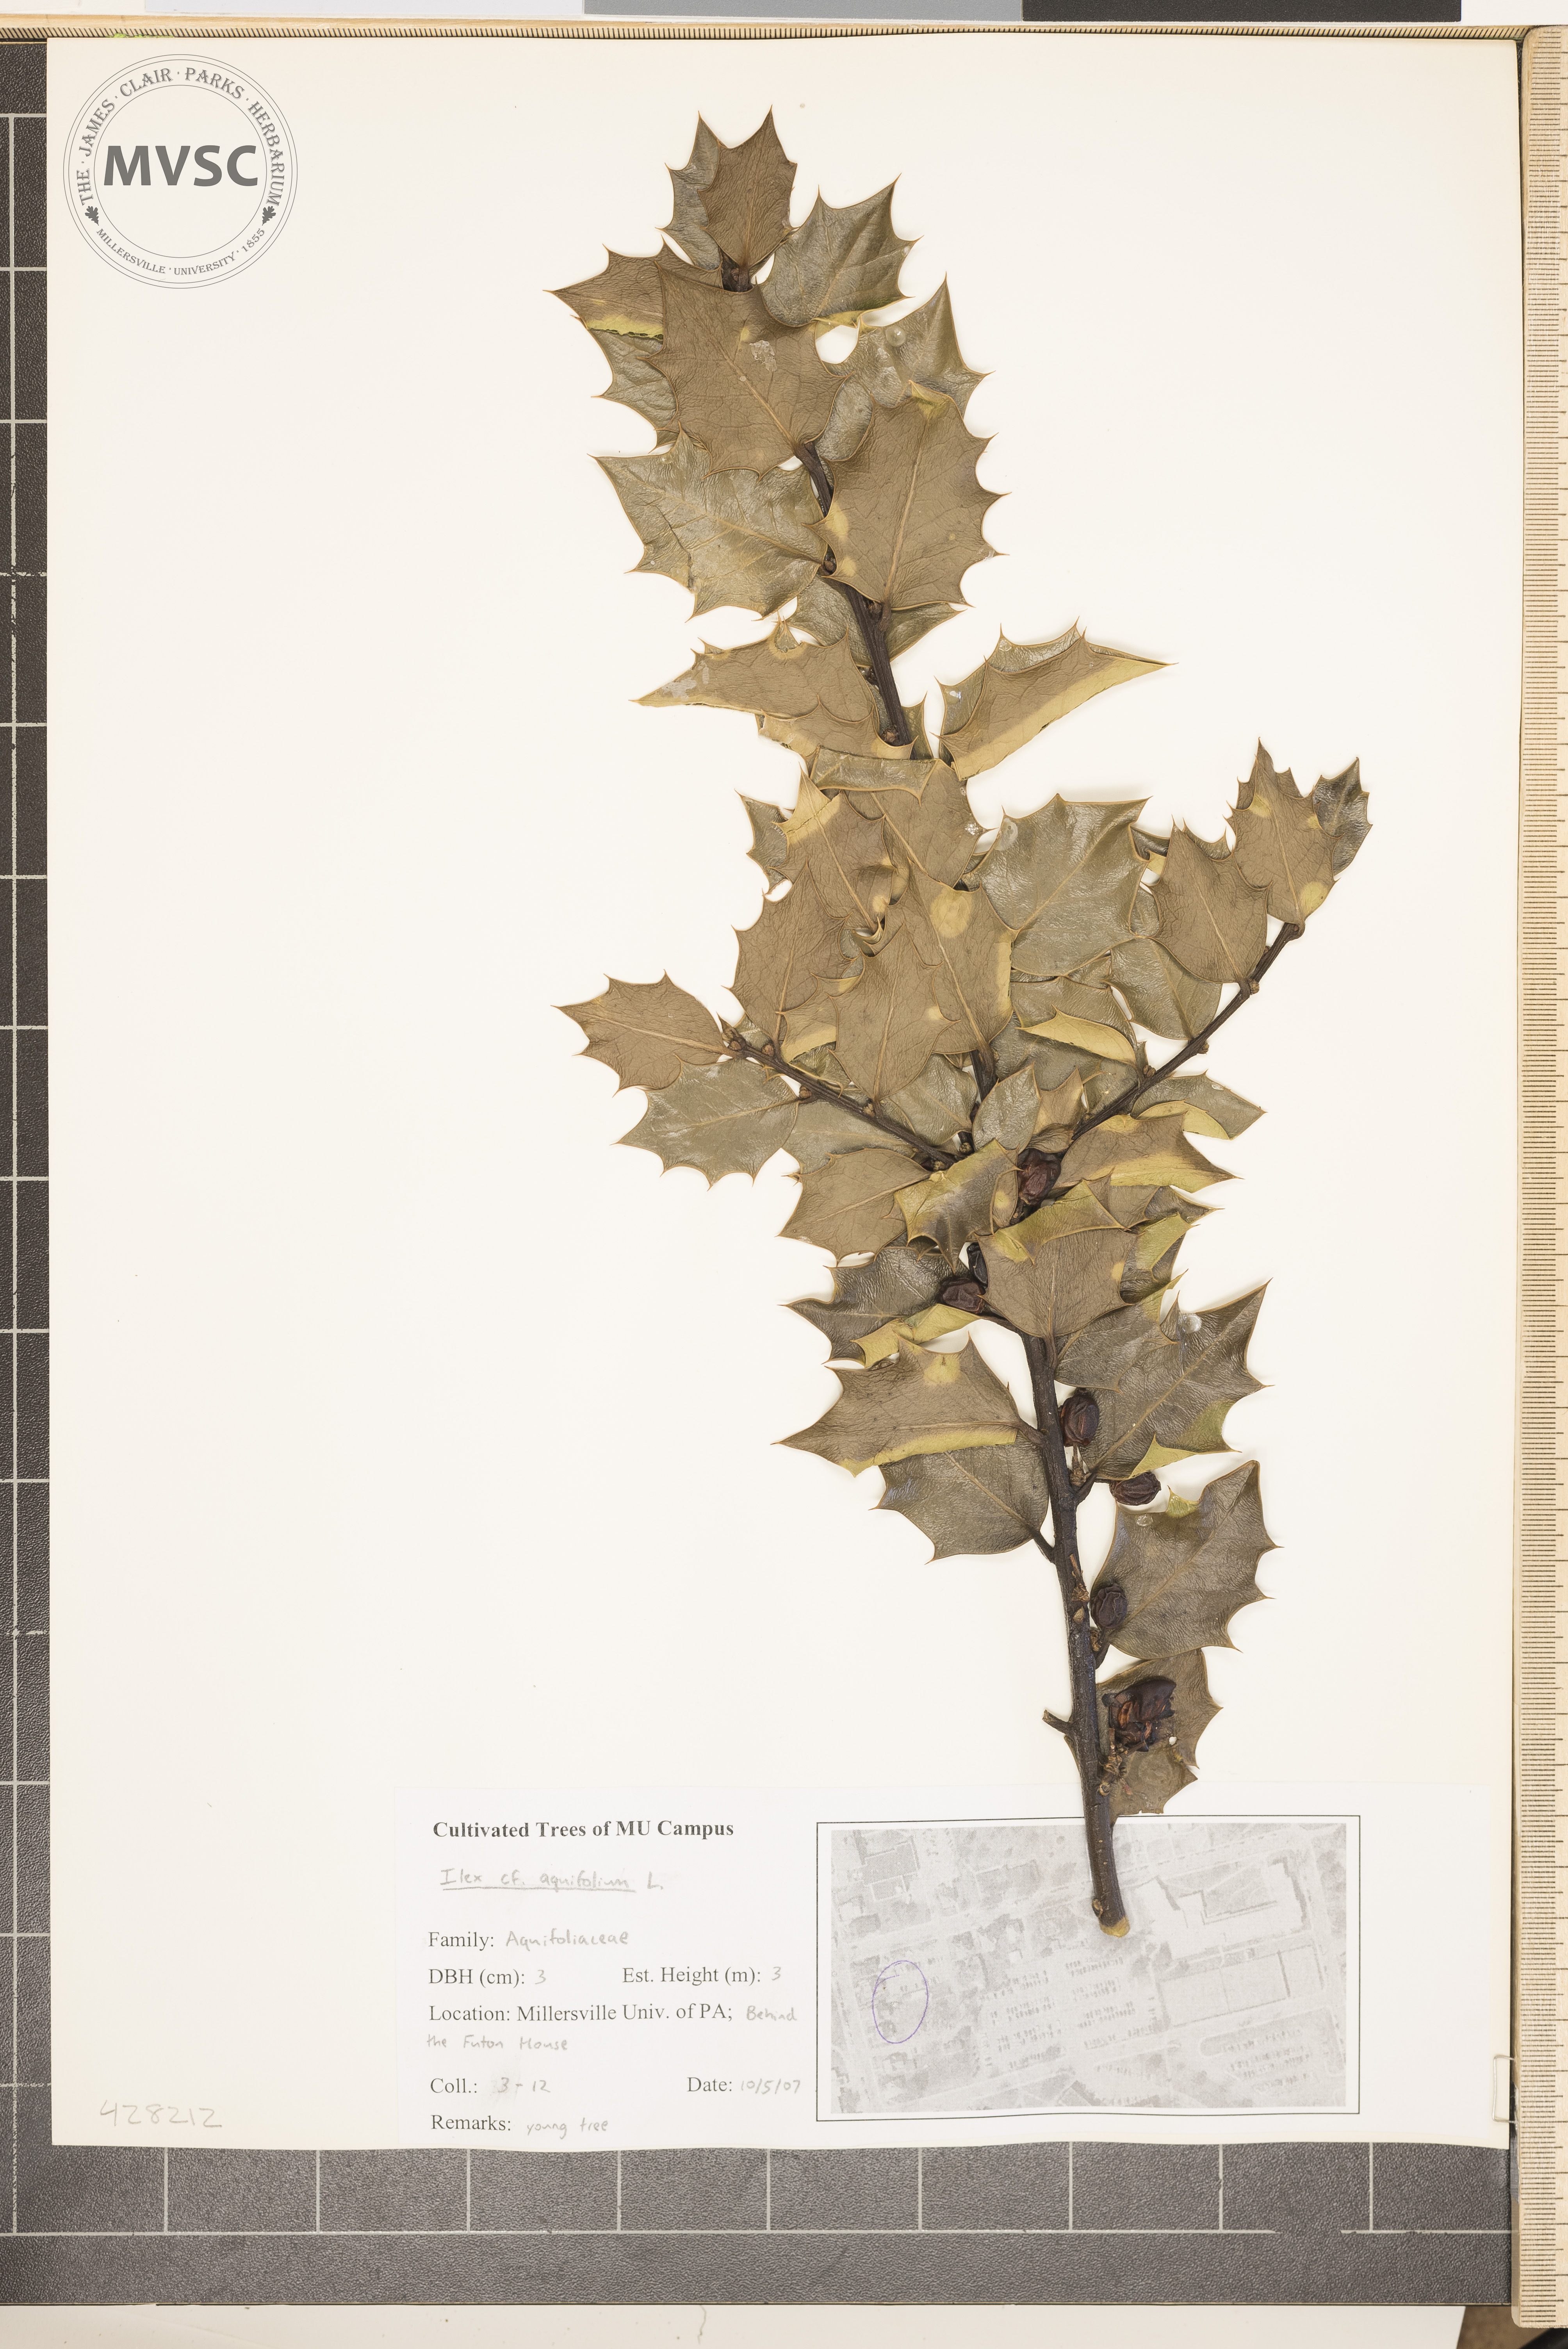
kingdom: Plantae
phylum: Tracheophyta
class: Magnoliopsida
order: Aquifoliales
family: Aquifoliaceae
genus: Ilex
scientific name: Ilex aquifolium
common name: English holly
